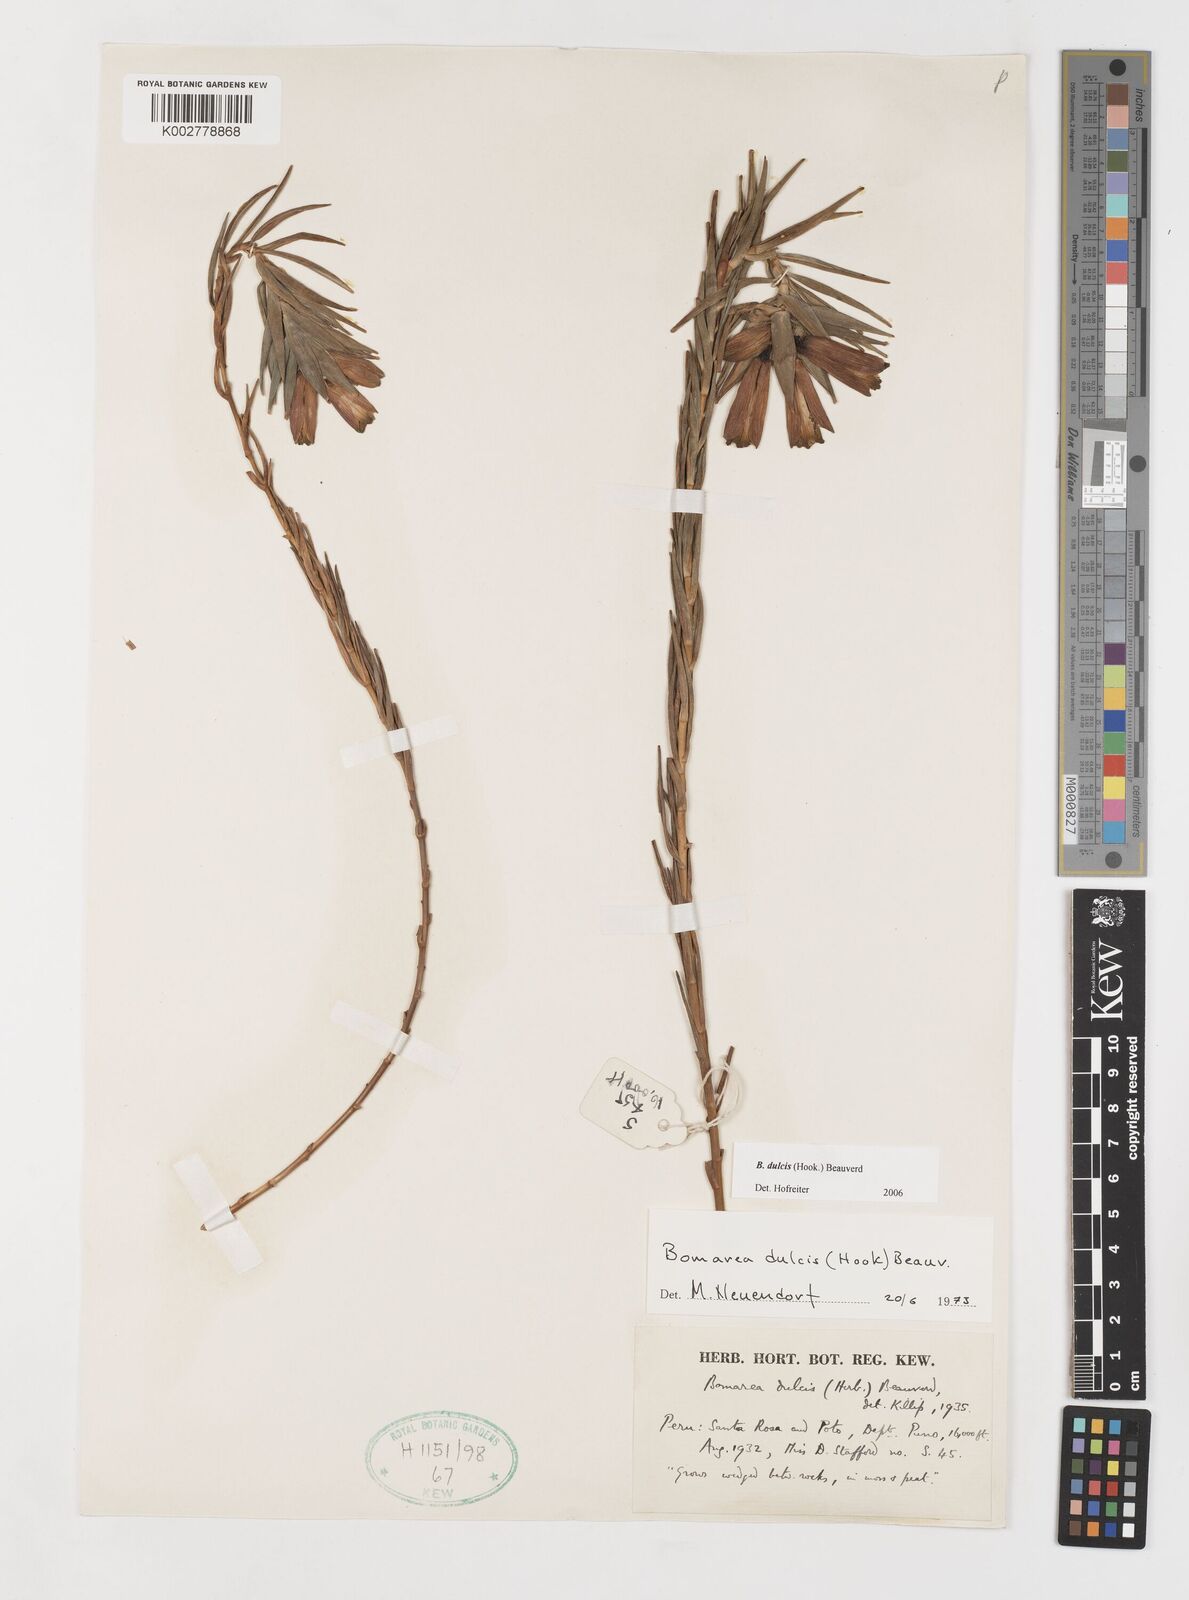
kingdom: Plantae
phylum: Tracheophyta
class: Liliopsida
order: Liliales
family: Alstroemeriaceae
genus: Bomarea
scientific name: Bomarea dulcis
